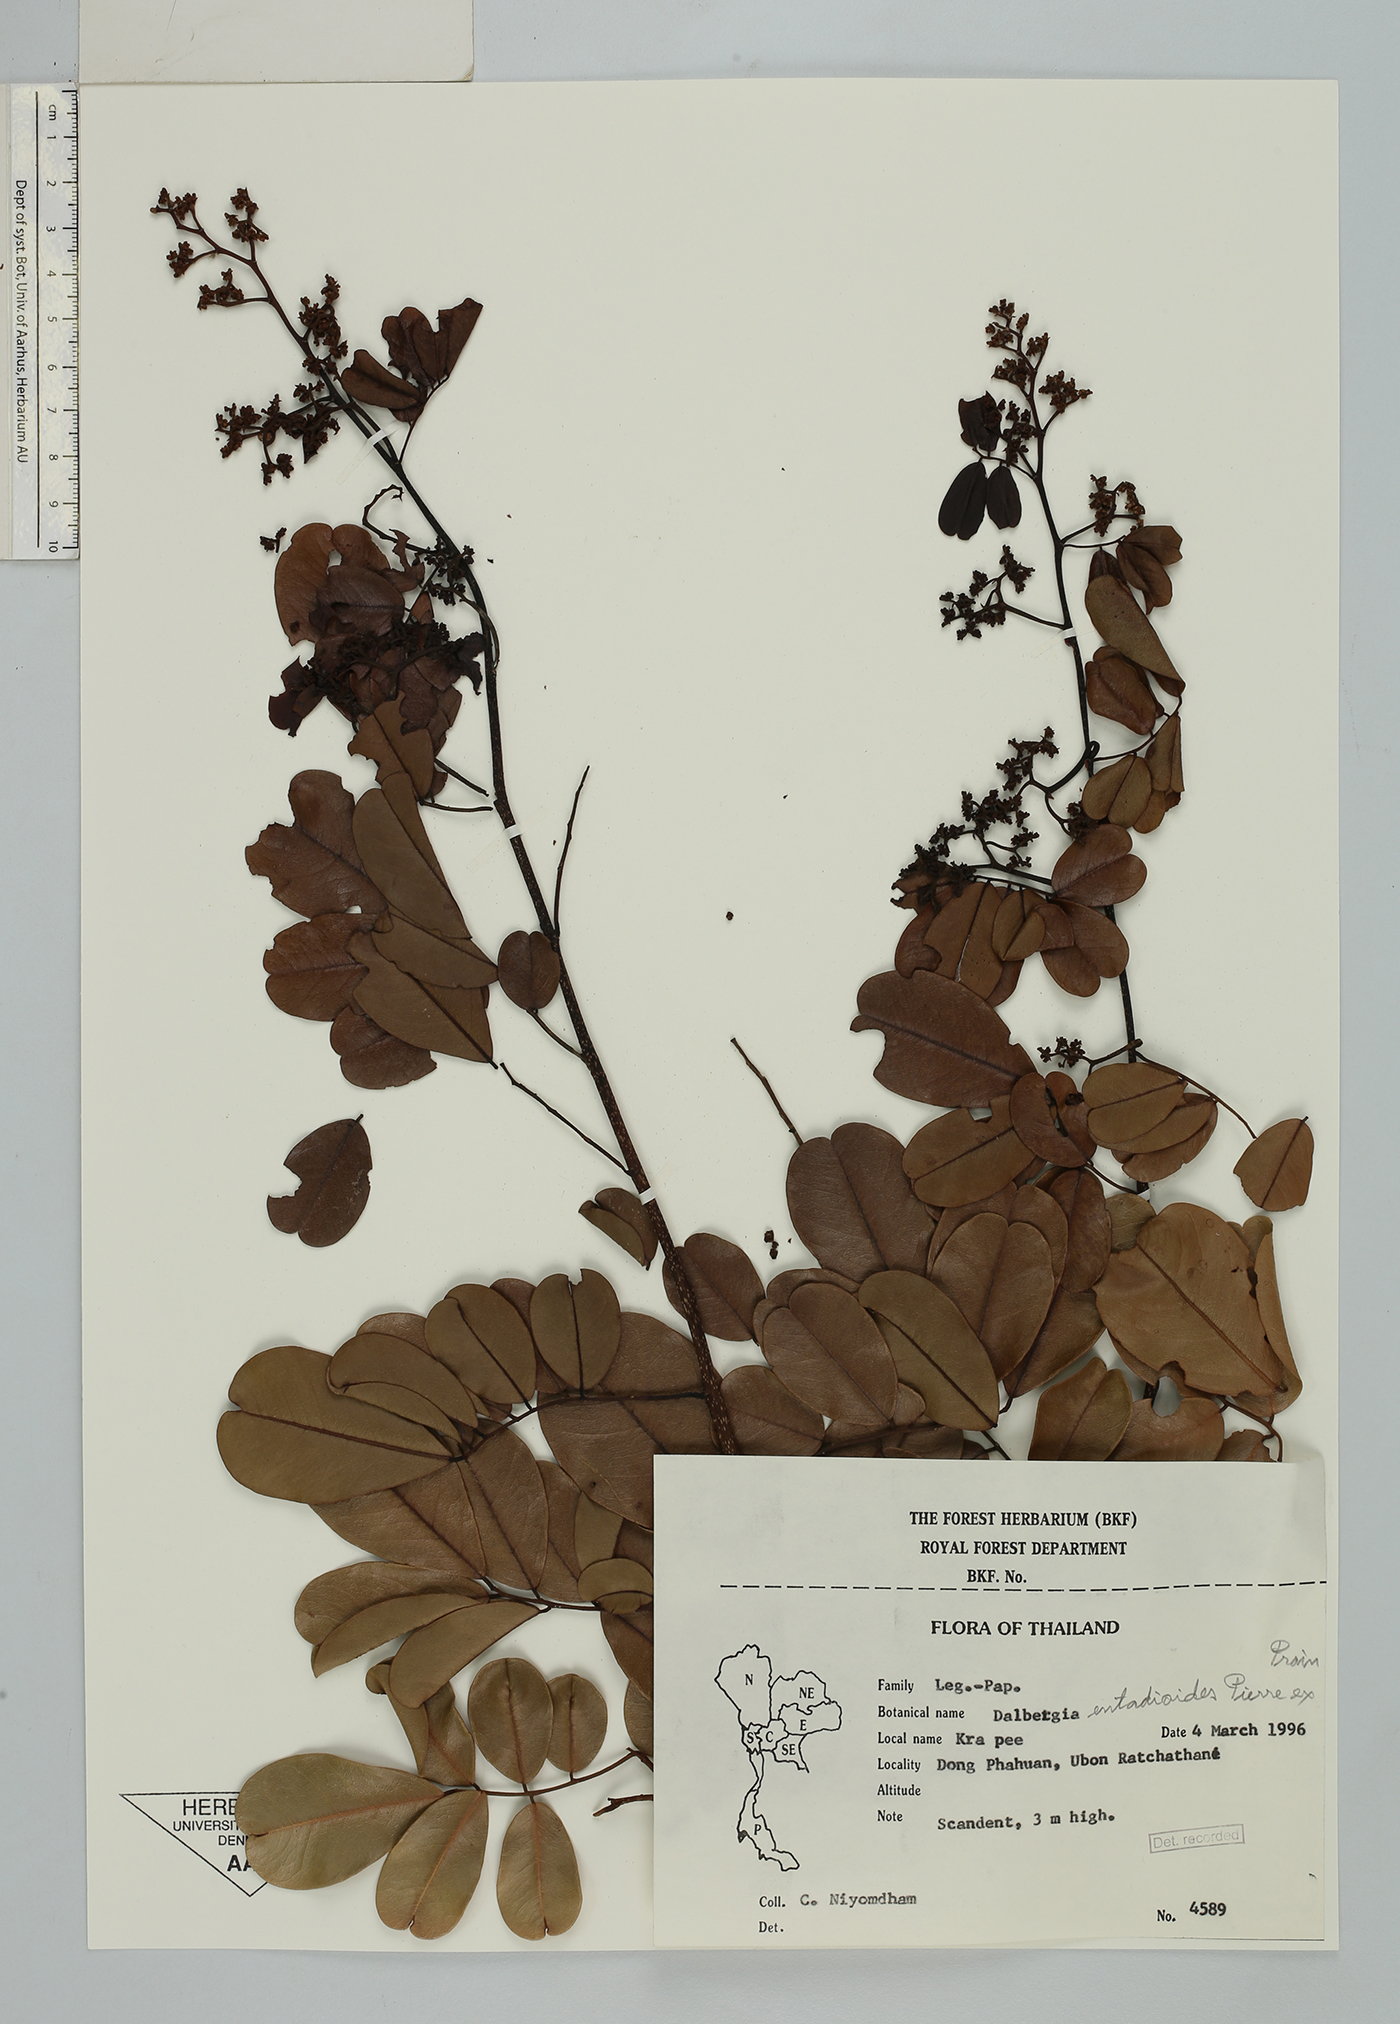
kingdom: Plantae
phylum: Tracheophyta
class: Magnoliopsida
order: Fabales
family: Fabaceae
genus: Dalbergia
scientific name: Dalbergia entadioides
